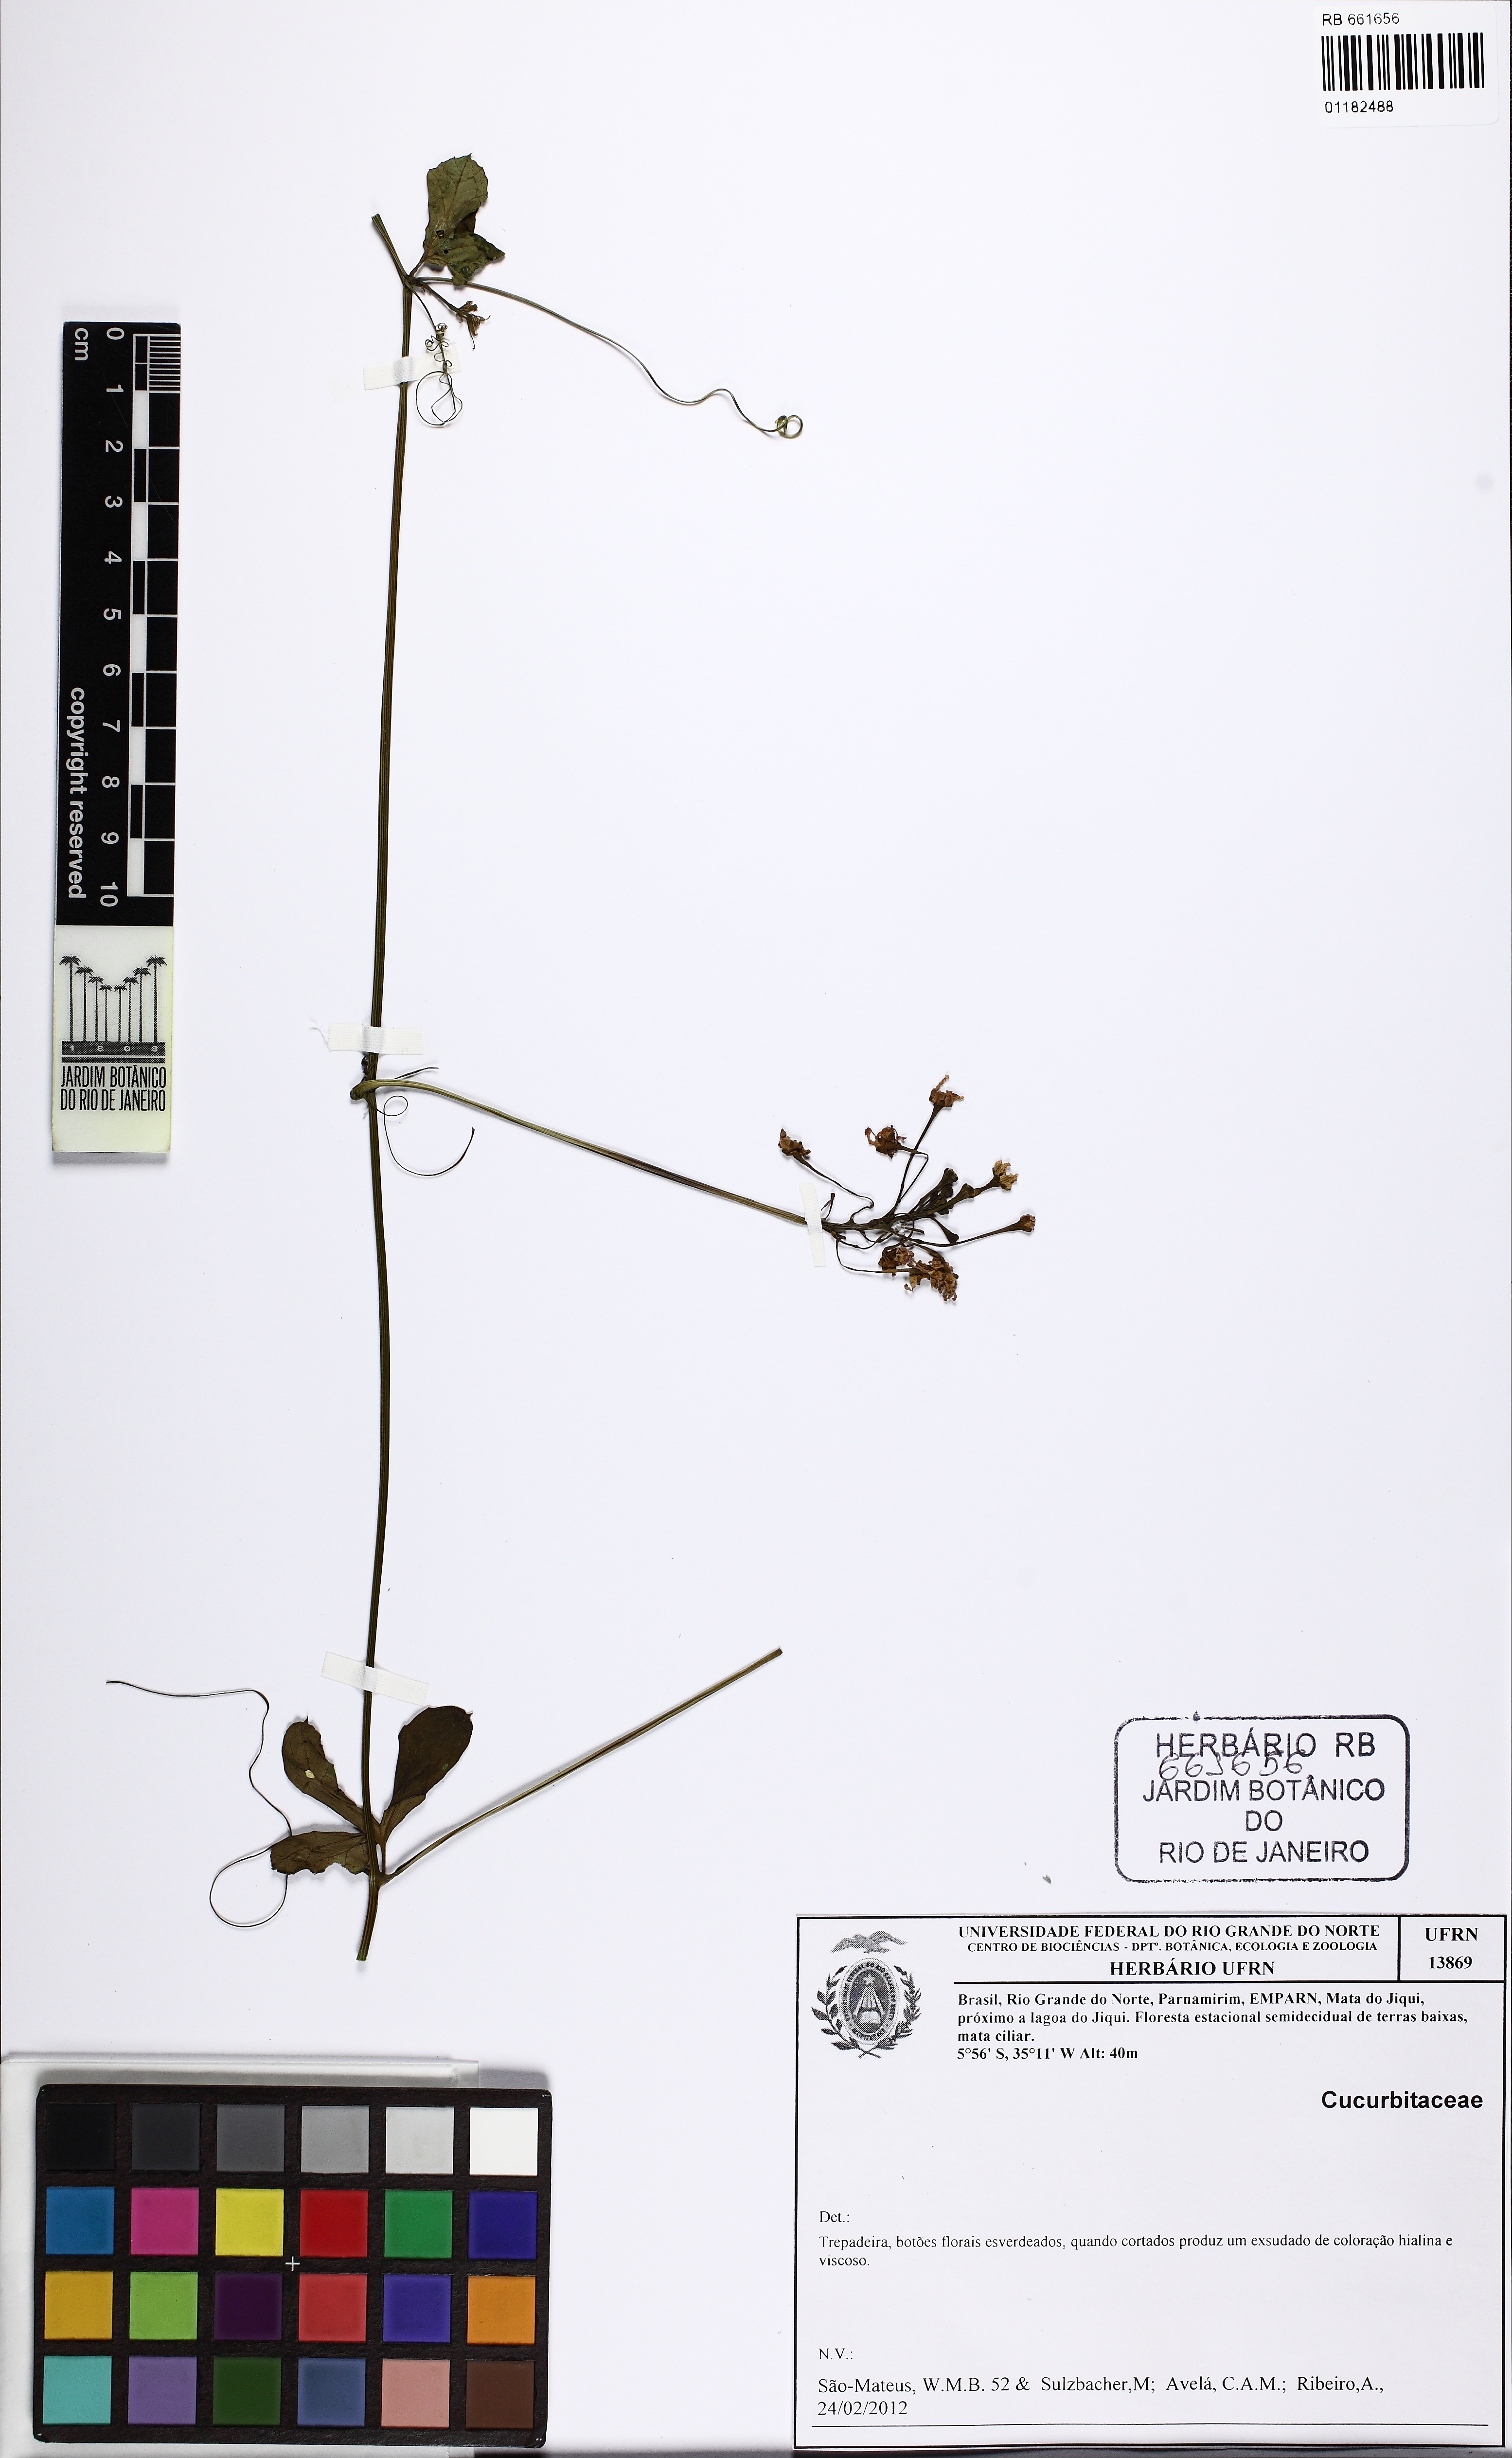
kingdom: Plantae
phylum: Tracheophyta
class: Magnoliopsida
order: Cucurbitales
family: Cucurbitaceae
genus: Ceratosanthes
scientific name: Ceratosanthes
